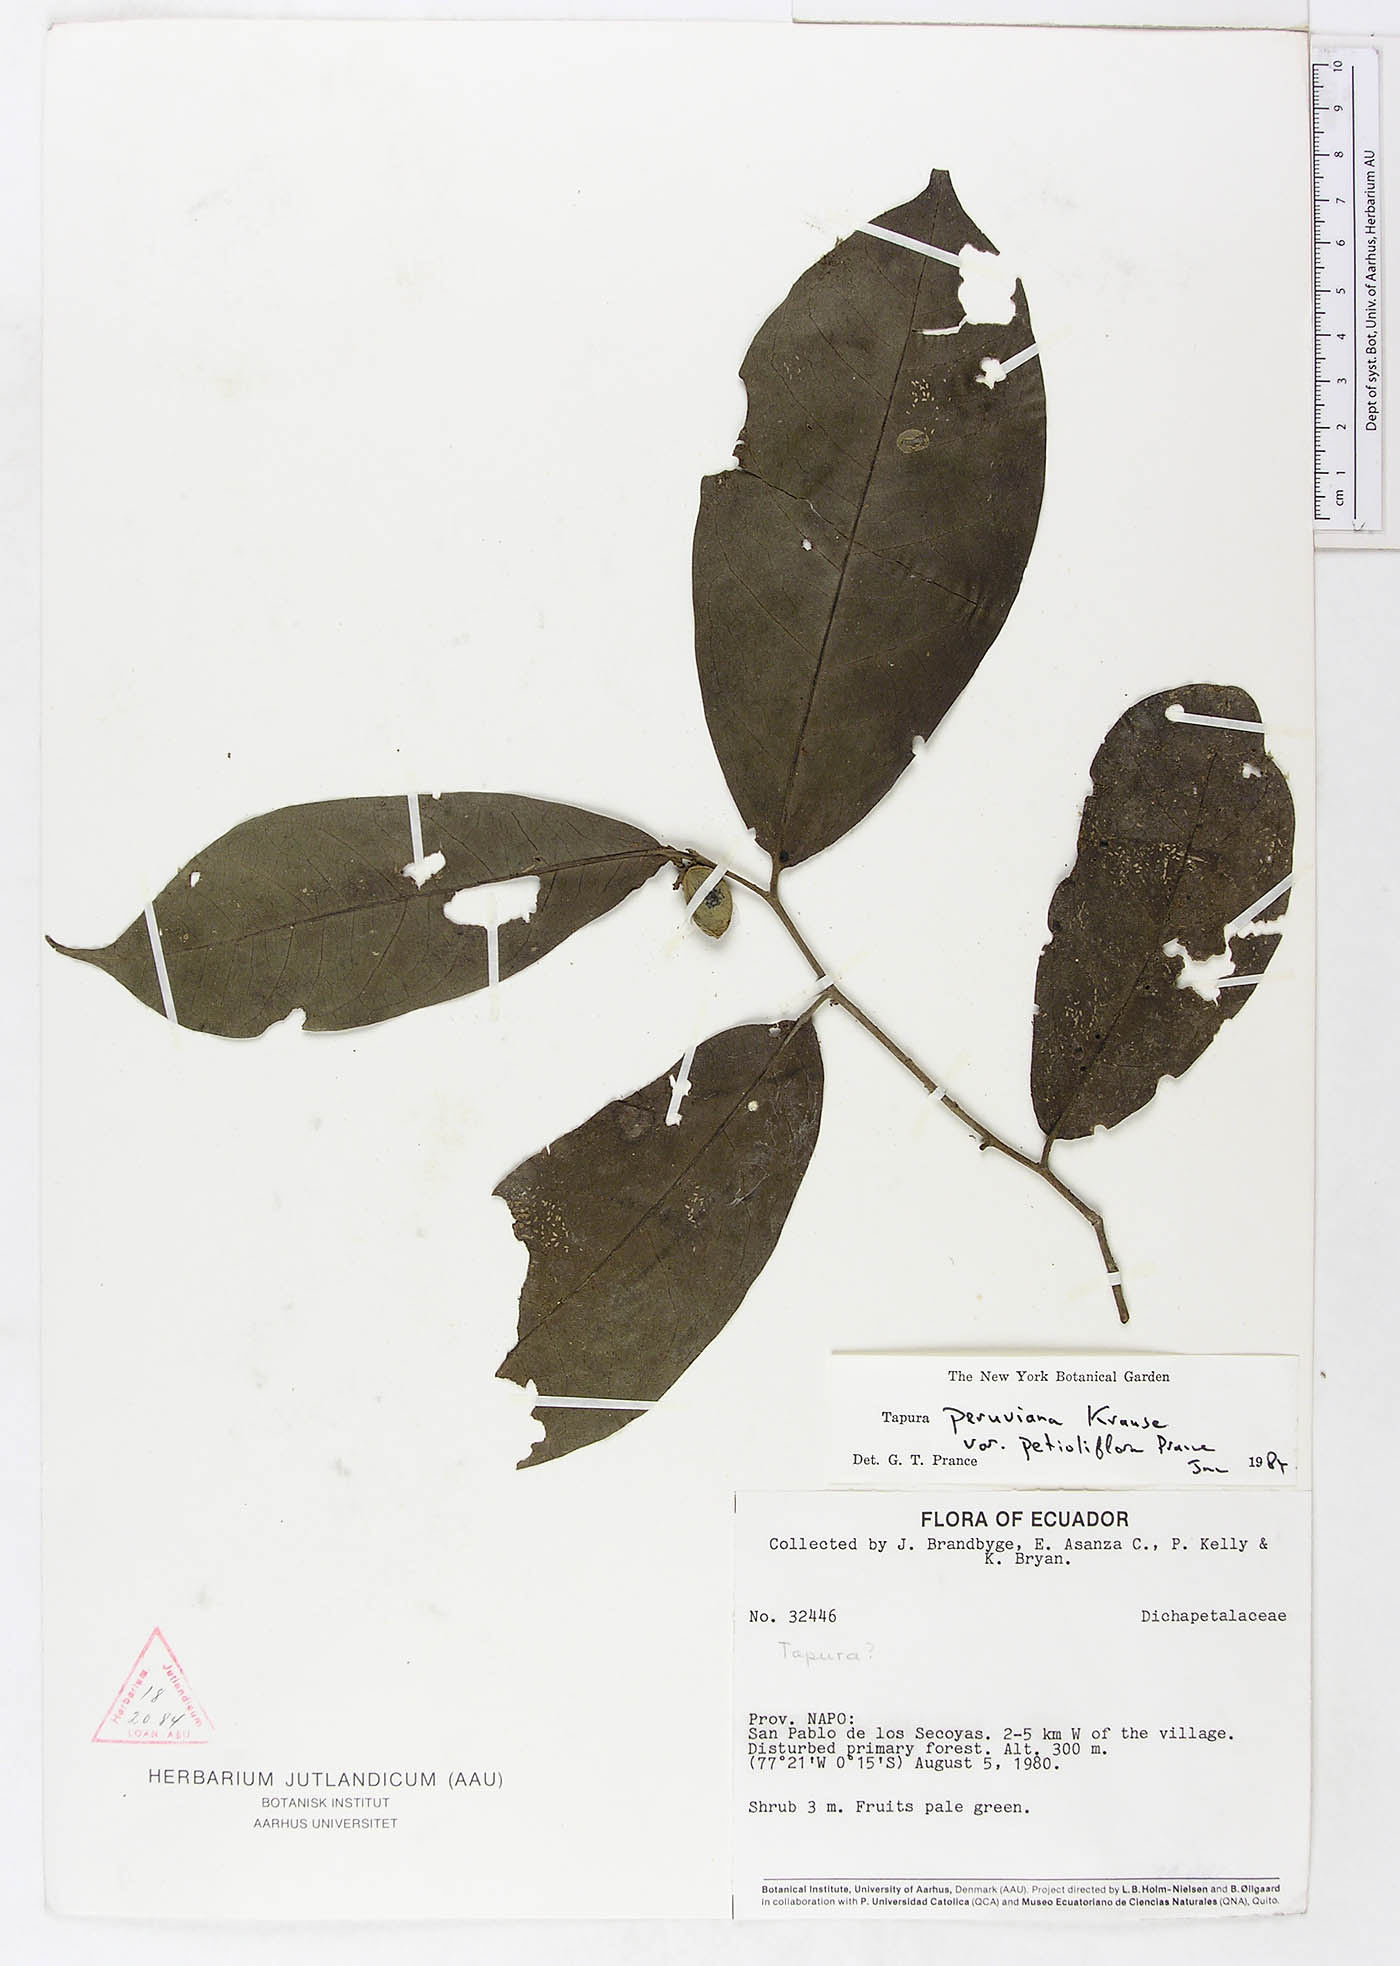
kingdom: Plantae
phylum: Tracheophyta
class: Magnoliopsida
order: Malpighiales
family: Dichapetalaceae
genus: Tapura
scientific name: Tapura peruviana
